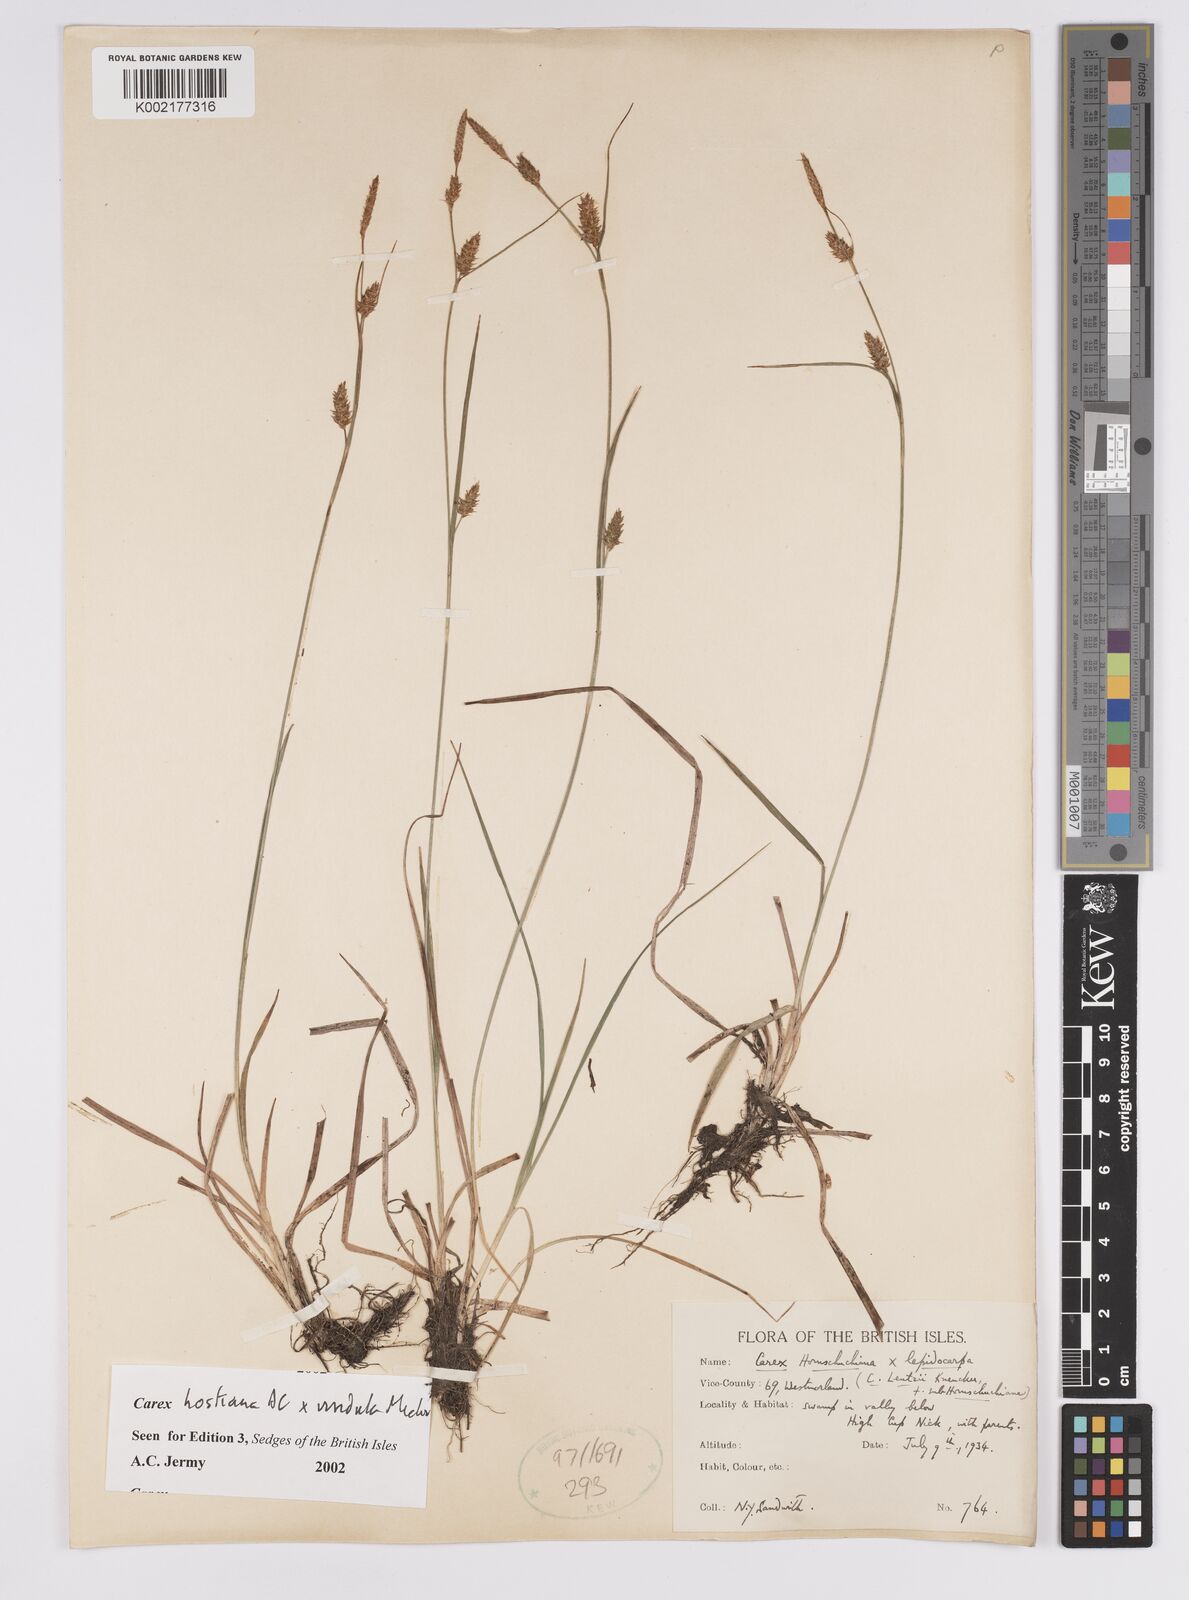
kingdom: Plantae
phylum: Tracheophyta
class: Liliopsida
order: Poales
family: Cyperaceae
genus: Carex
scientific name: Carex hostiana
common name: Tawny sedge
